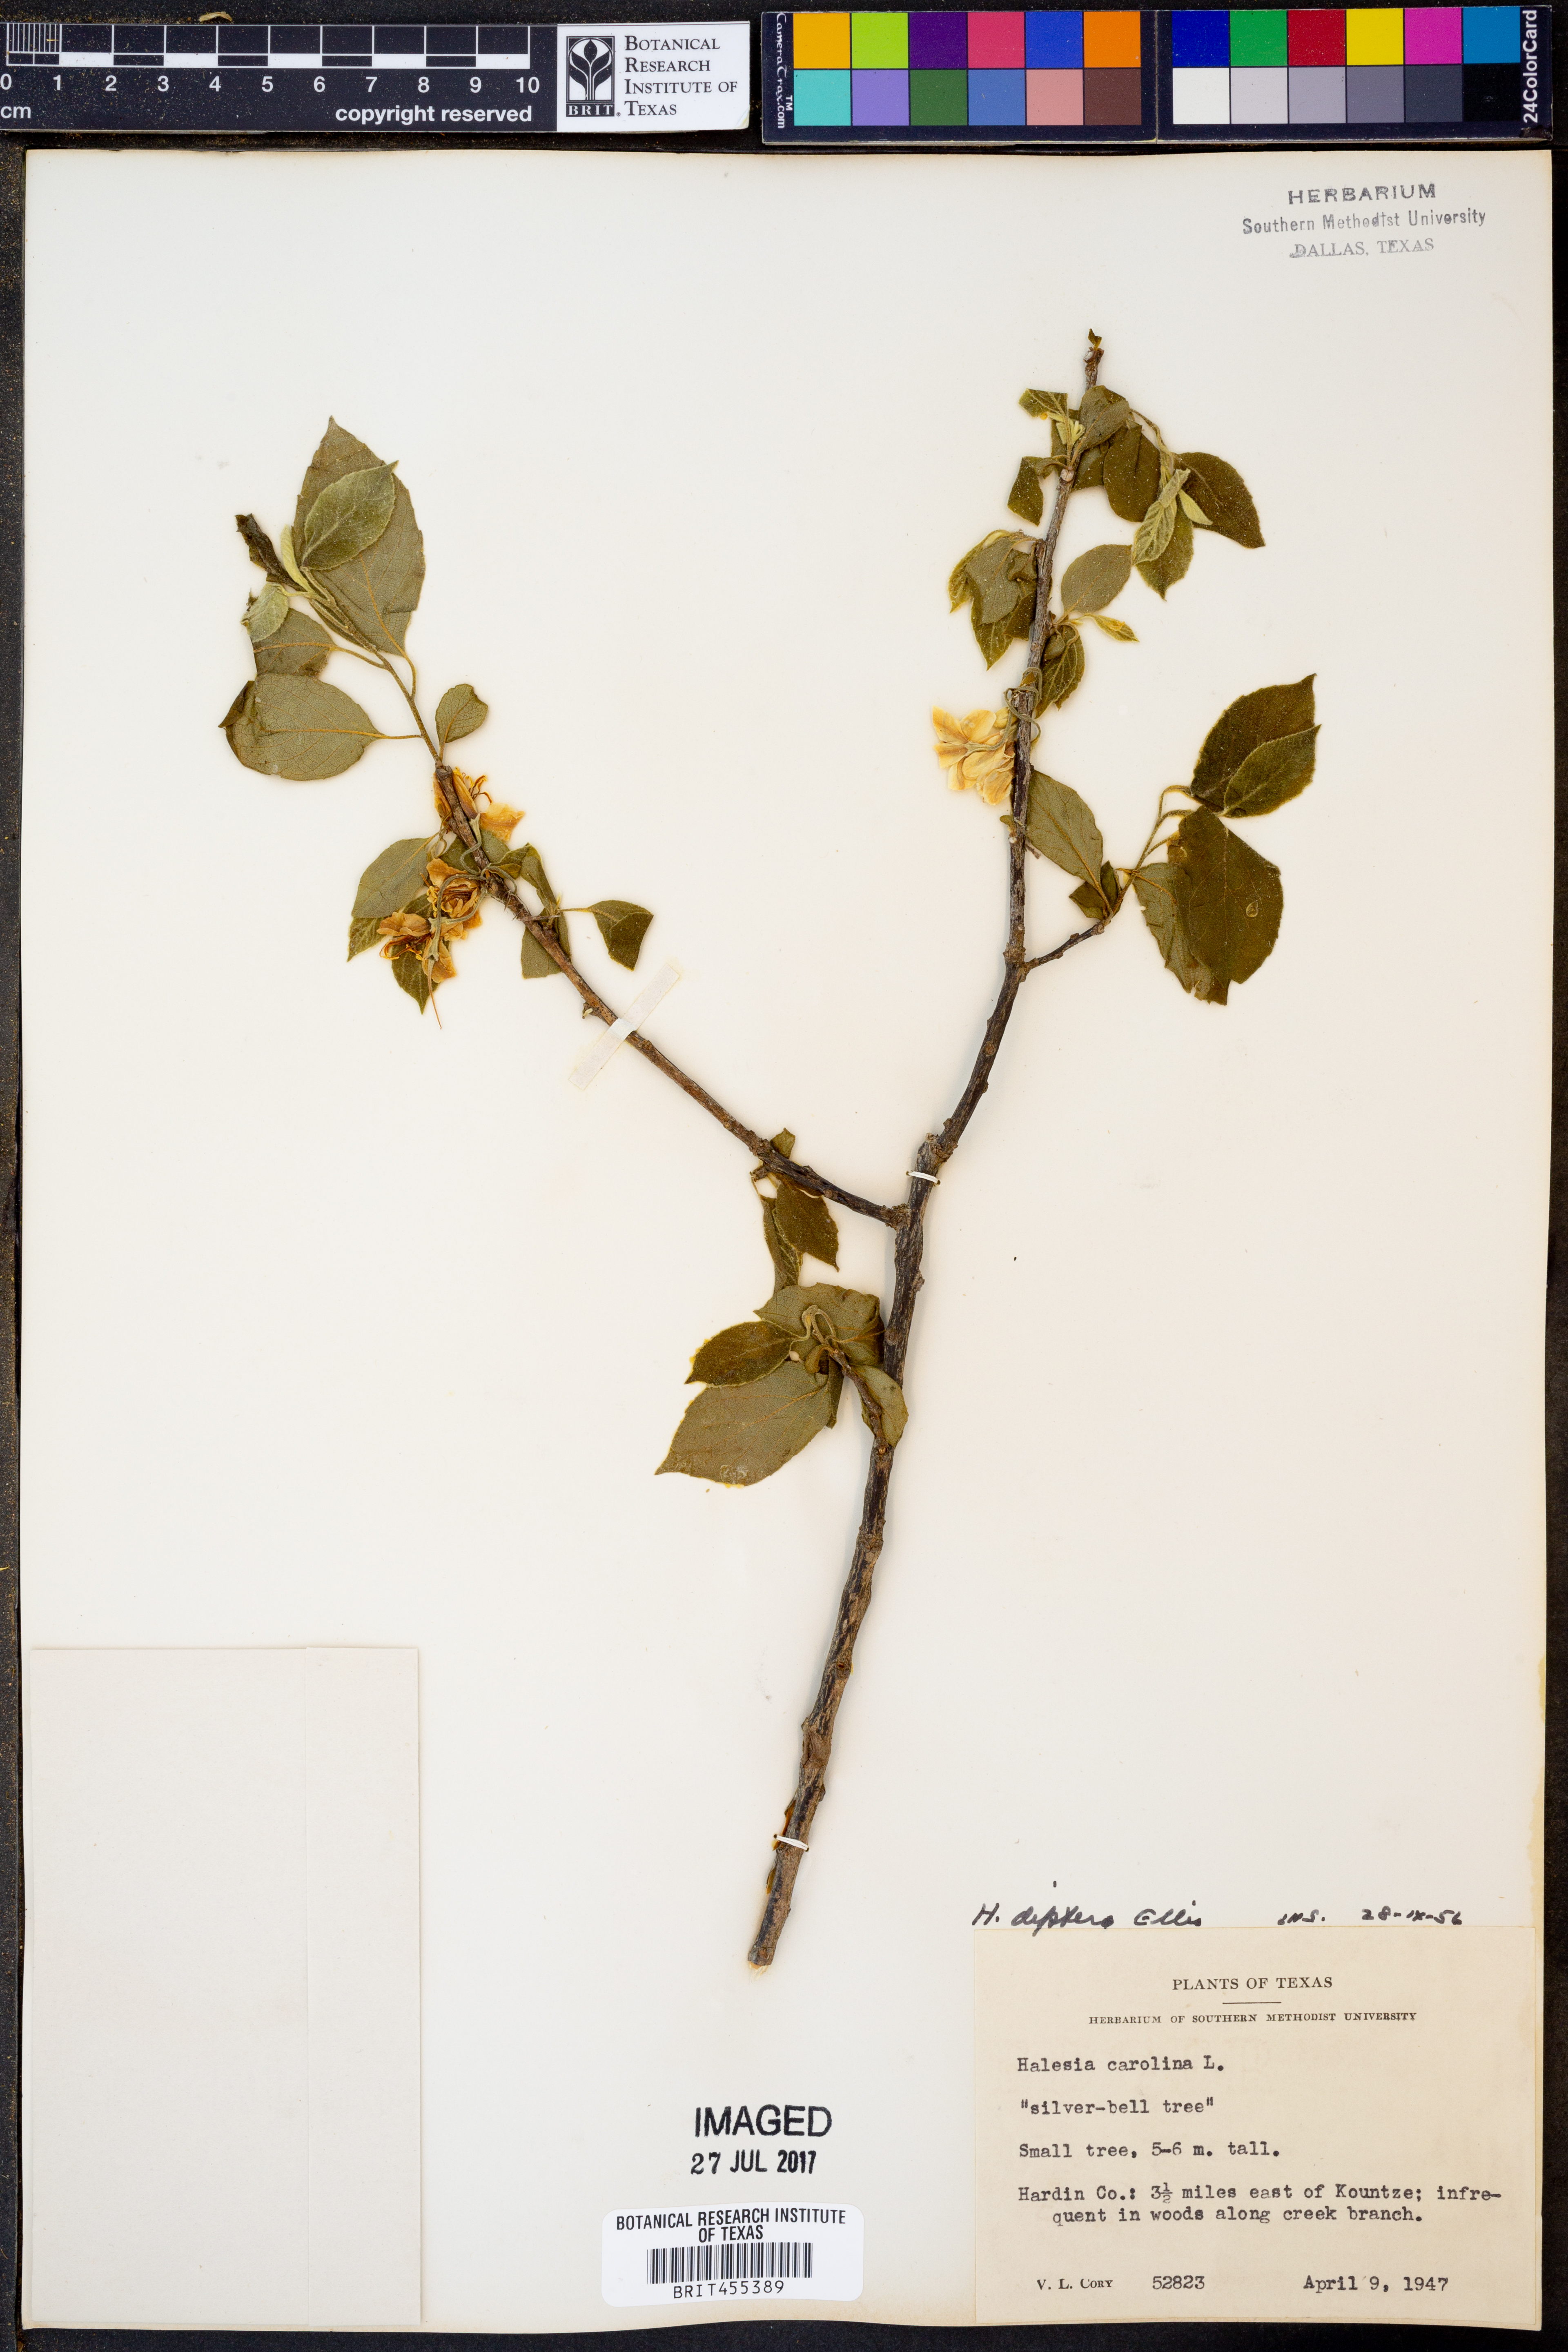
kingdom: Plantae
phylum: Tracheophyta
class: Magnoliopsida
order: Ericales
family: Styracaceae
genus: Halesia
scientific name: Halesia diptera
